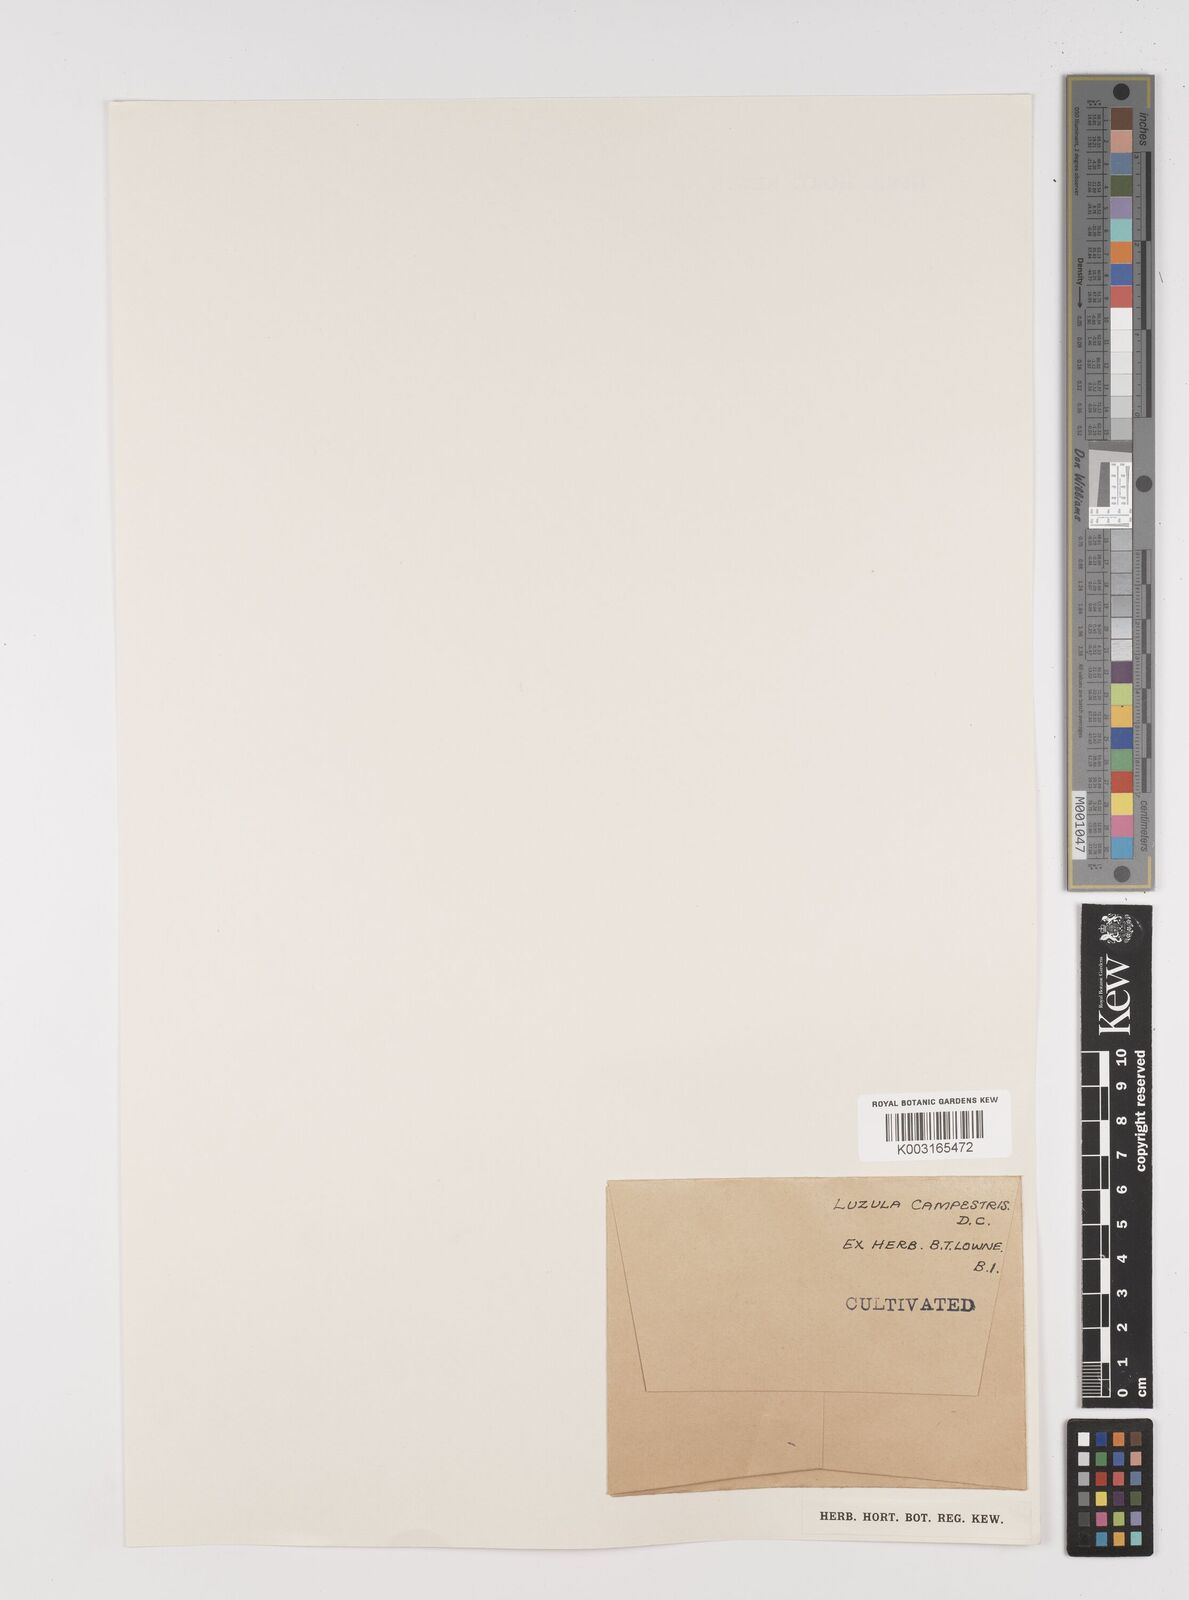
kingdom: Plantae
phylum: Tracheophyta
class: Liliopsida
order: Poales
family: Juncaceae
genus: Luzula
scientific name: Luzula campestris
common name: Field wood-rush
